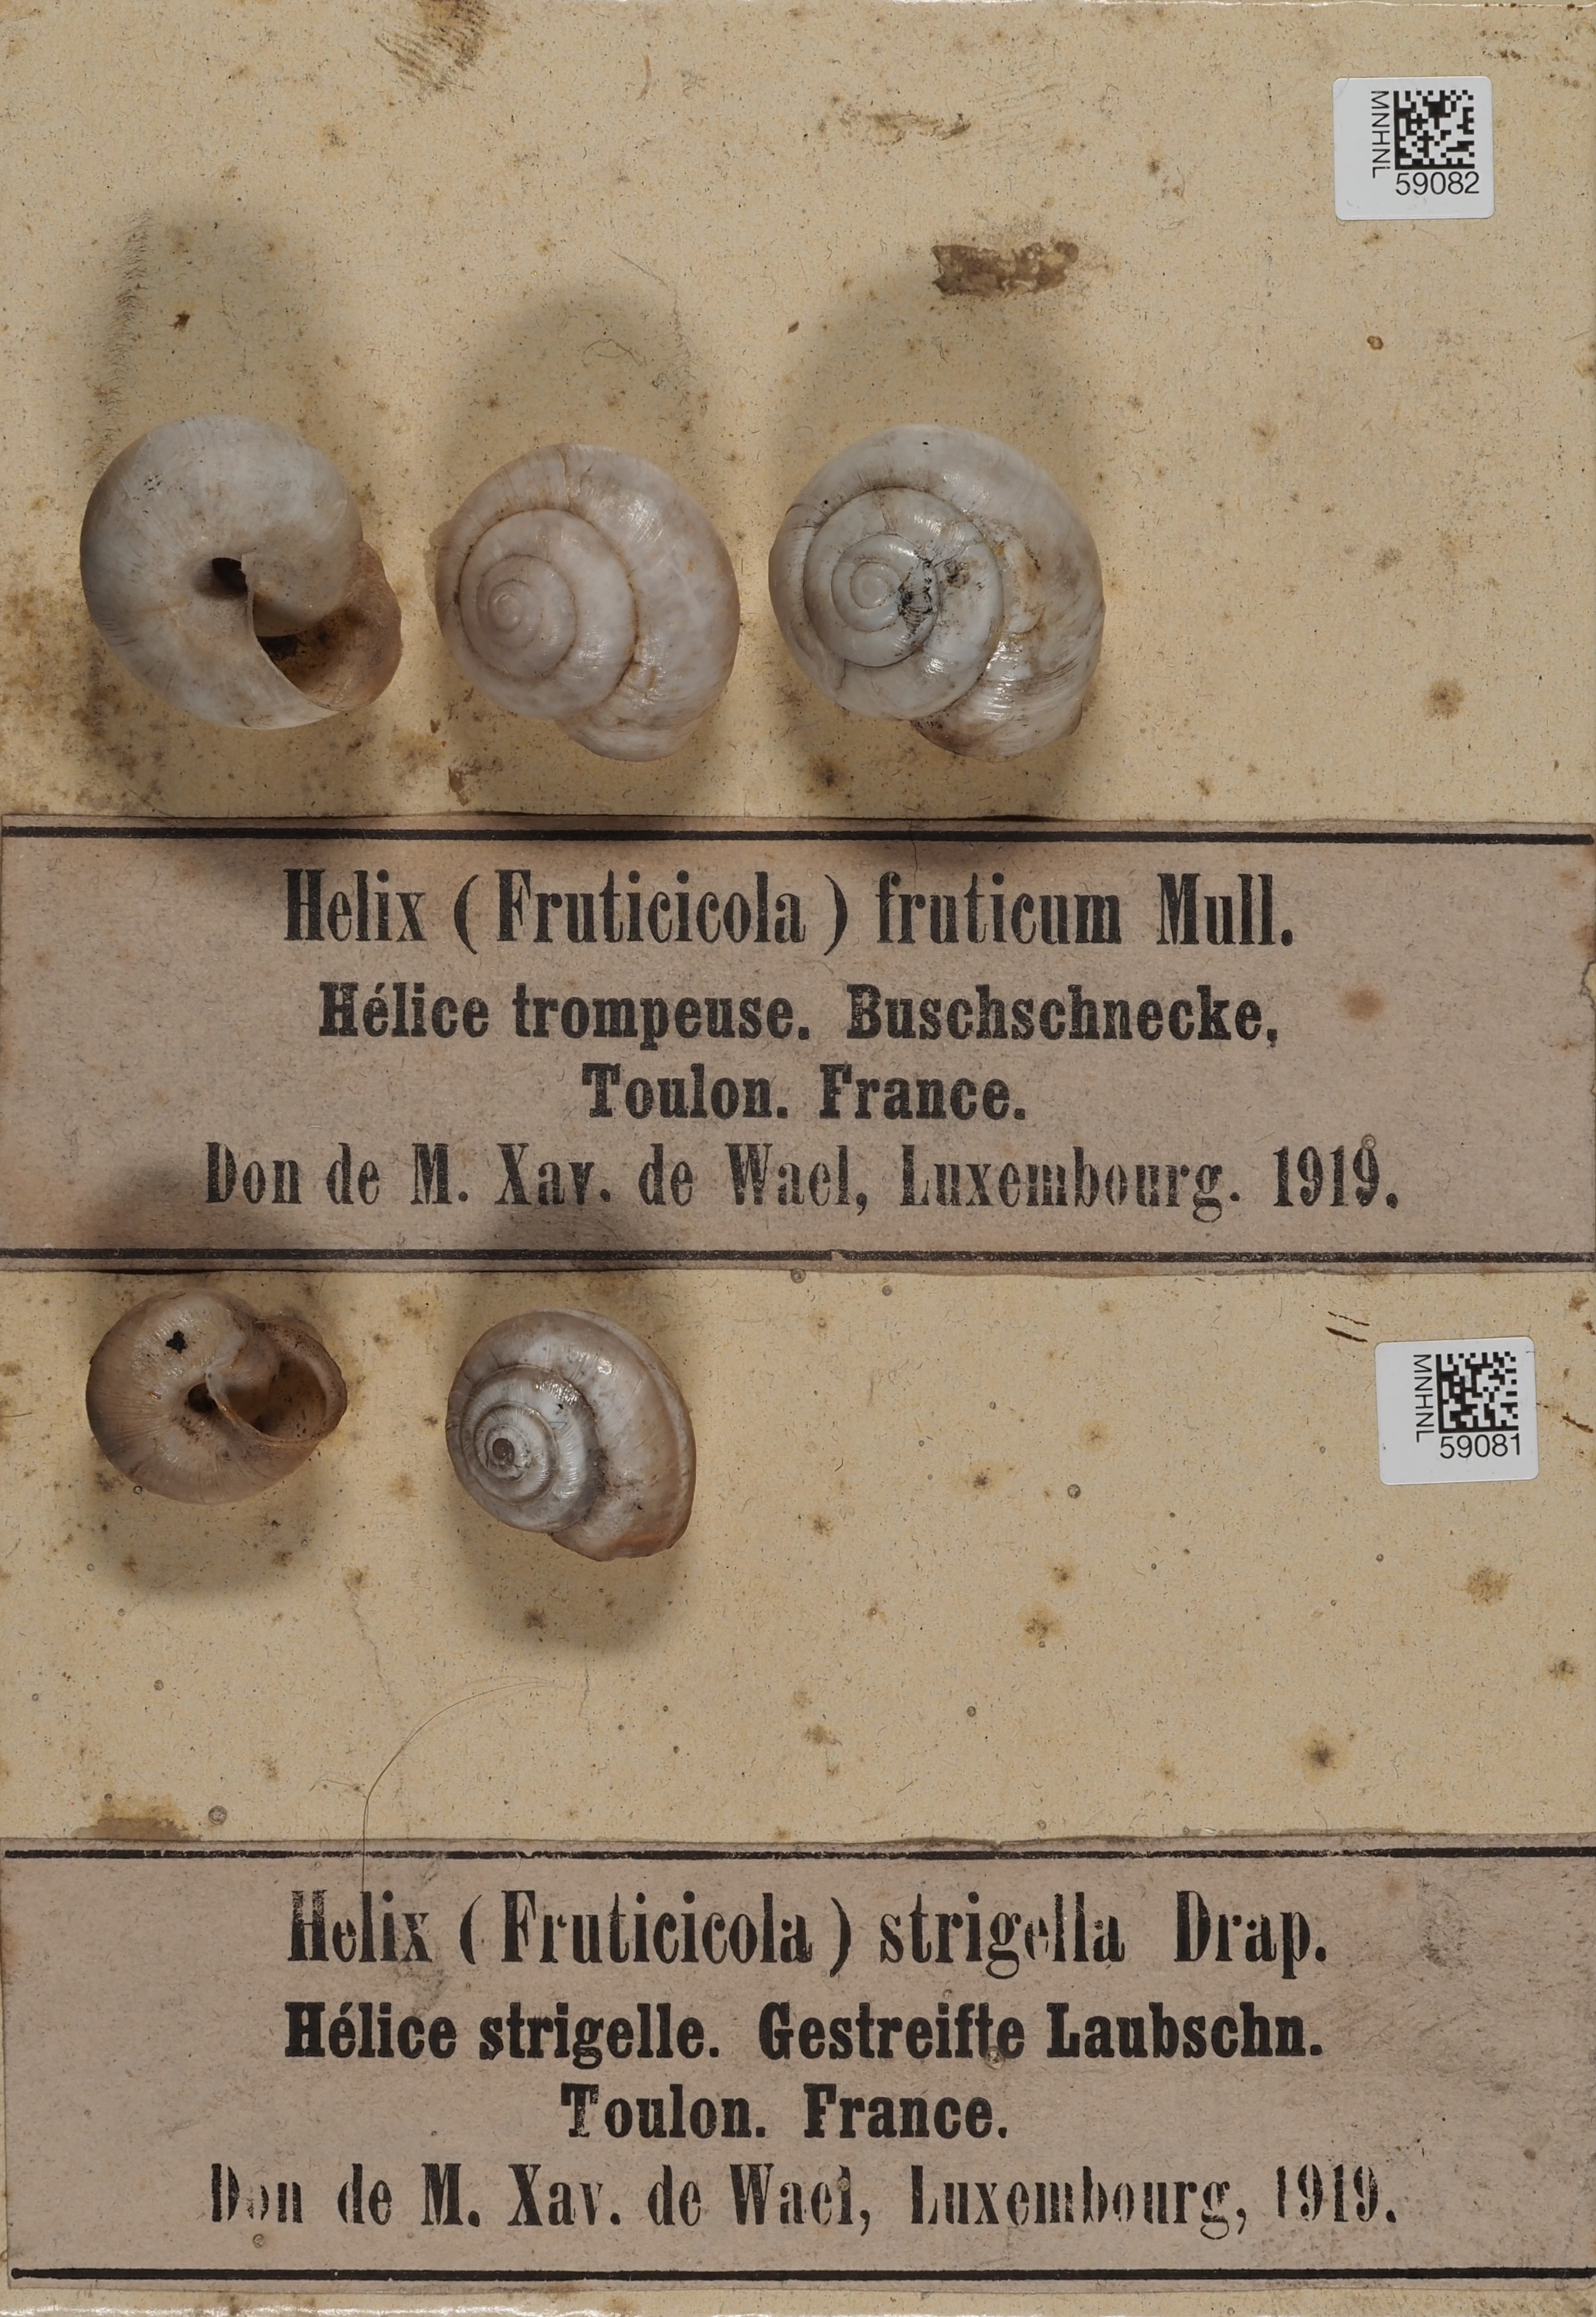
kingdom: Animalia
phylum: Mollusca
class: Gastropoda
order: Stylommatophora
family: Camaenidae
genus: Fruticicola
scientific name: Fruticicola fruticum
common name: Bush snail
